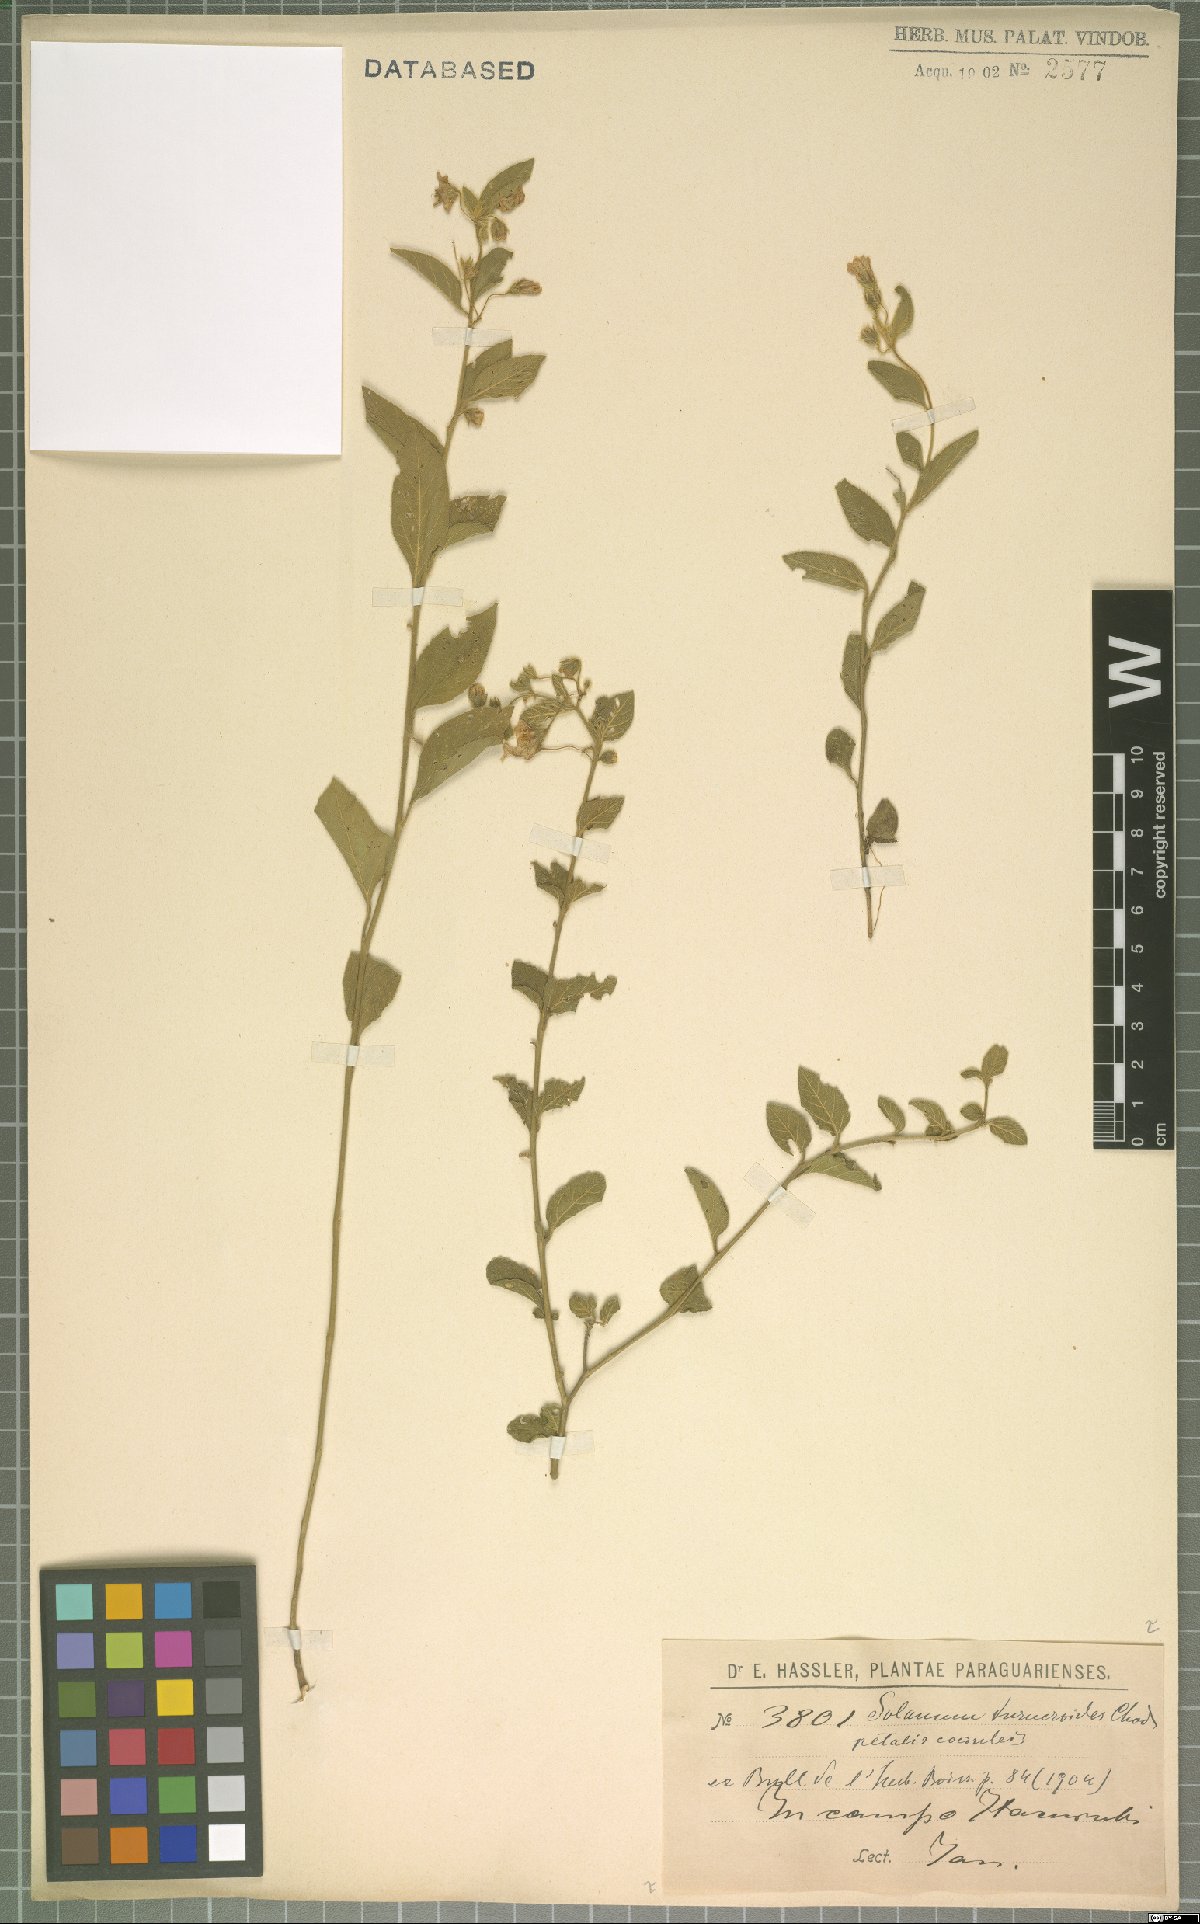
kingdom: Plantae
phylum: Tracheophyta
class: Magnoliopsida
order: Solanales
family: Solanaceae
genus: Solanum
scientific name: Solanum turneroides
